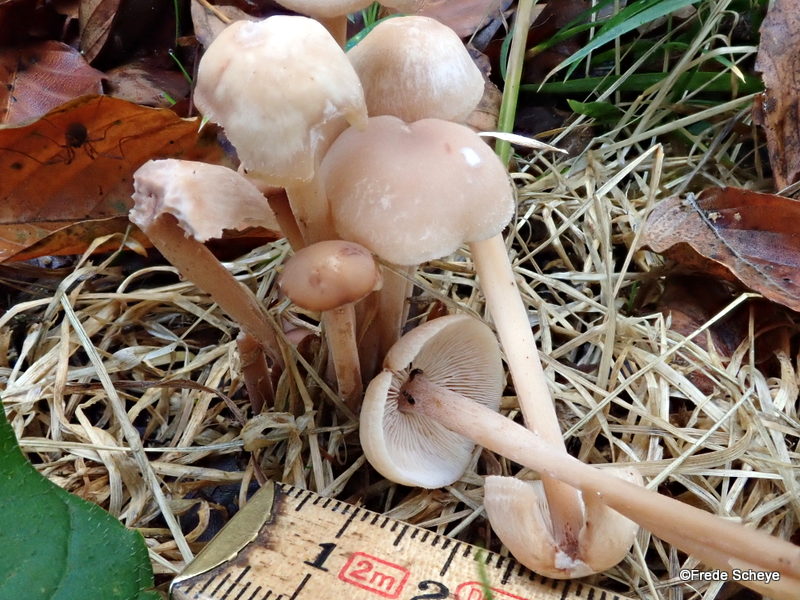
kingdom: Fungi
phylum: Basidiomycota
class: Agaricomycetes
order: Agaricales
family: Omphalotaceae
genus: Collybiopsis
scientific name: Collybiopsis confluens
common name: knippe-fladhat
